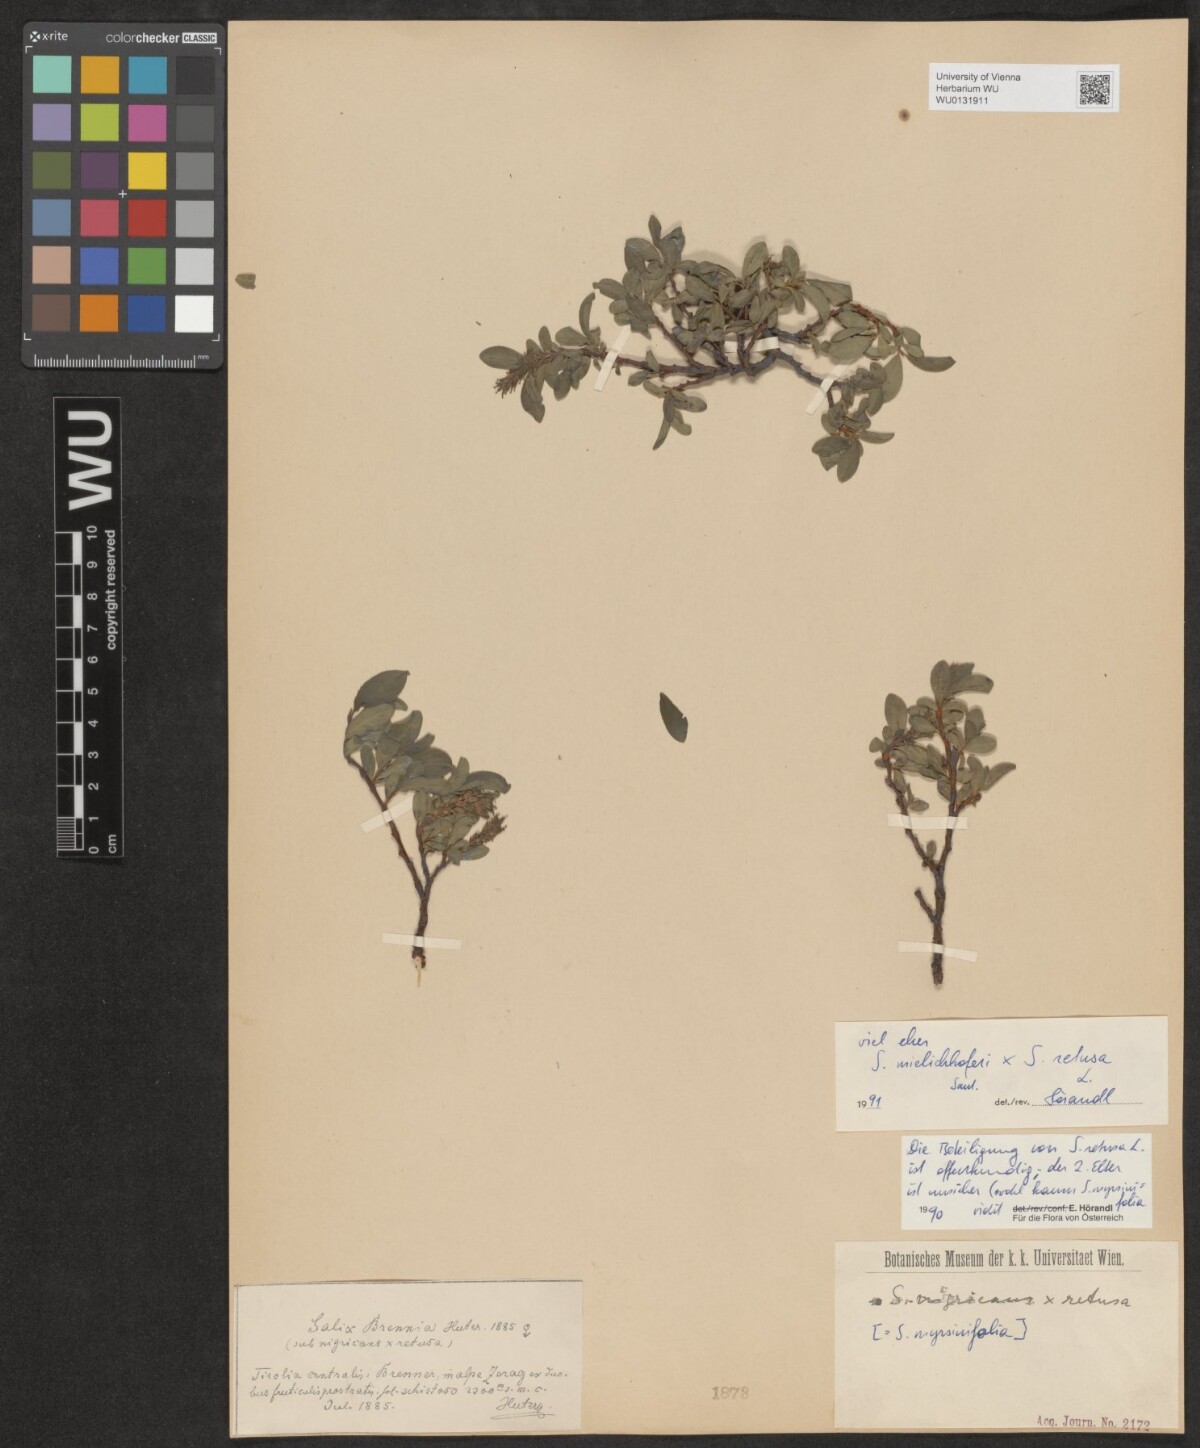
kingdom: Plantae
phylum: Tracheophyta
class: Magnoliopsida
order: Malpighiales
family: Salicaceae
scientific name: Salicaceae
